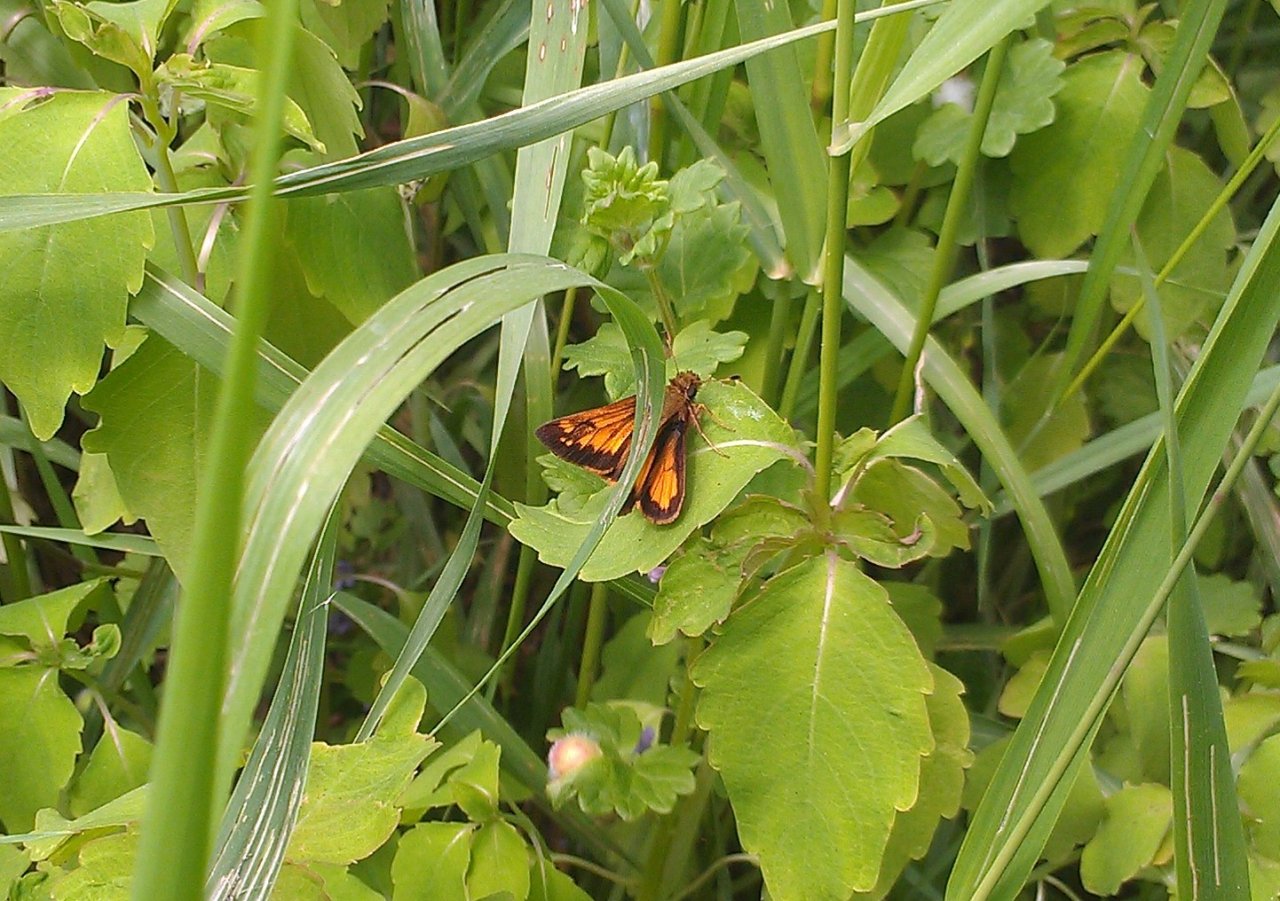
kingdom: Animalia
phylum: Arthropoda
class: Insecta
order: Lepidoptera
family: Hesperiidae
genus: Lon
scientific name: Lon hobomok
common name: Hobomok Skipper
